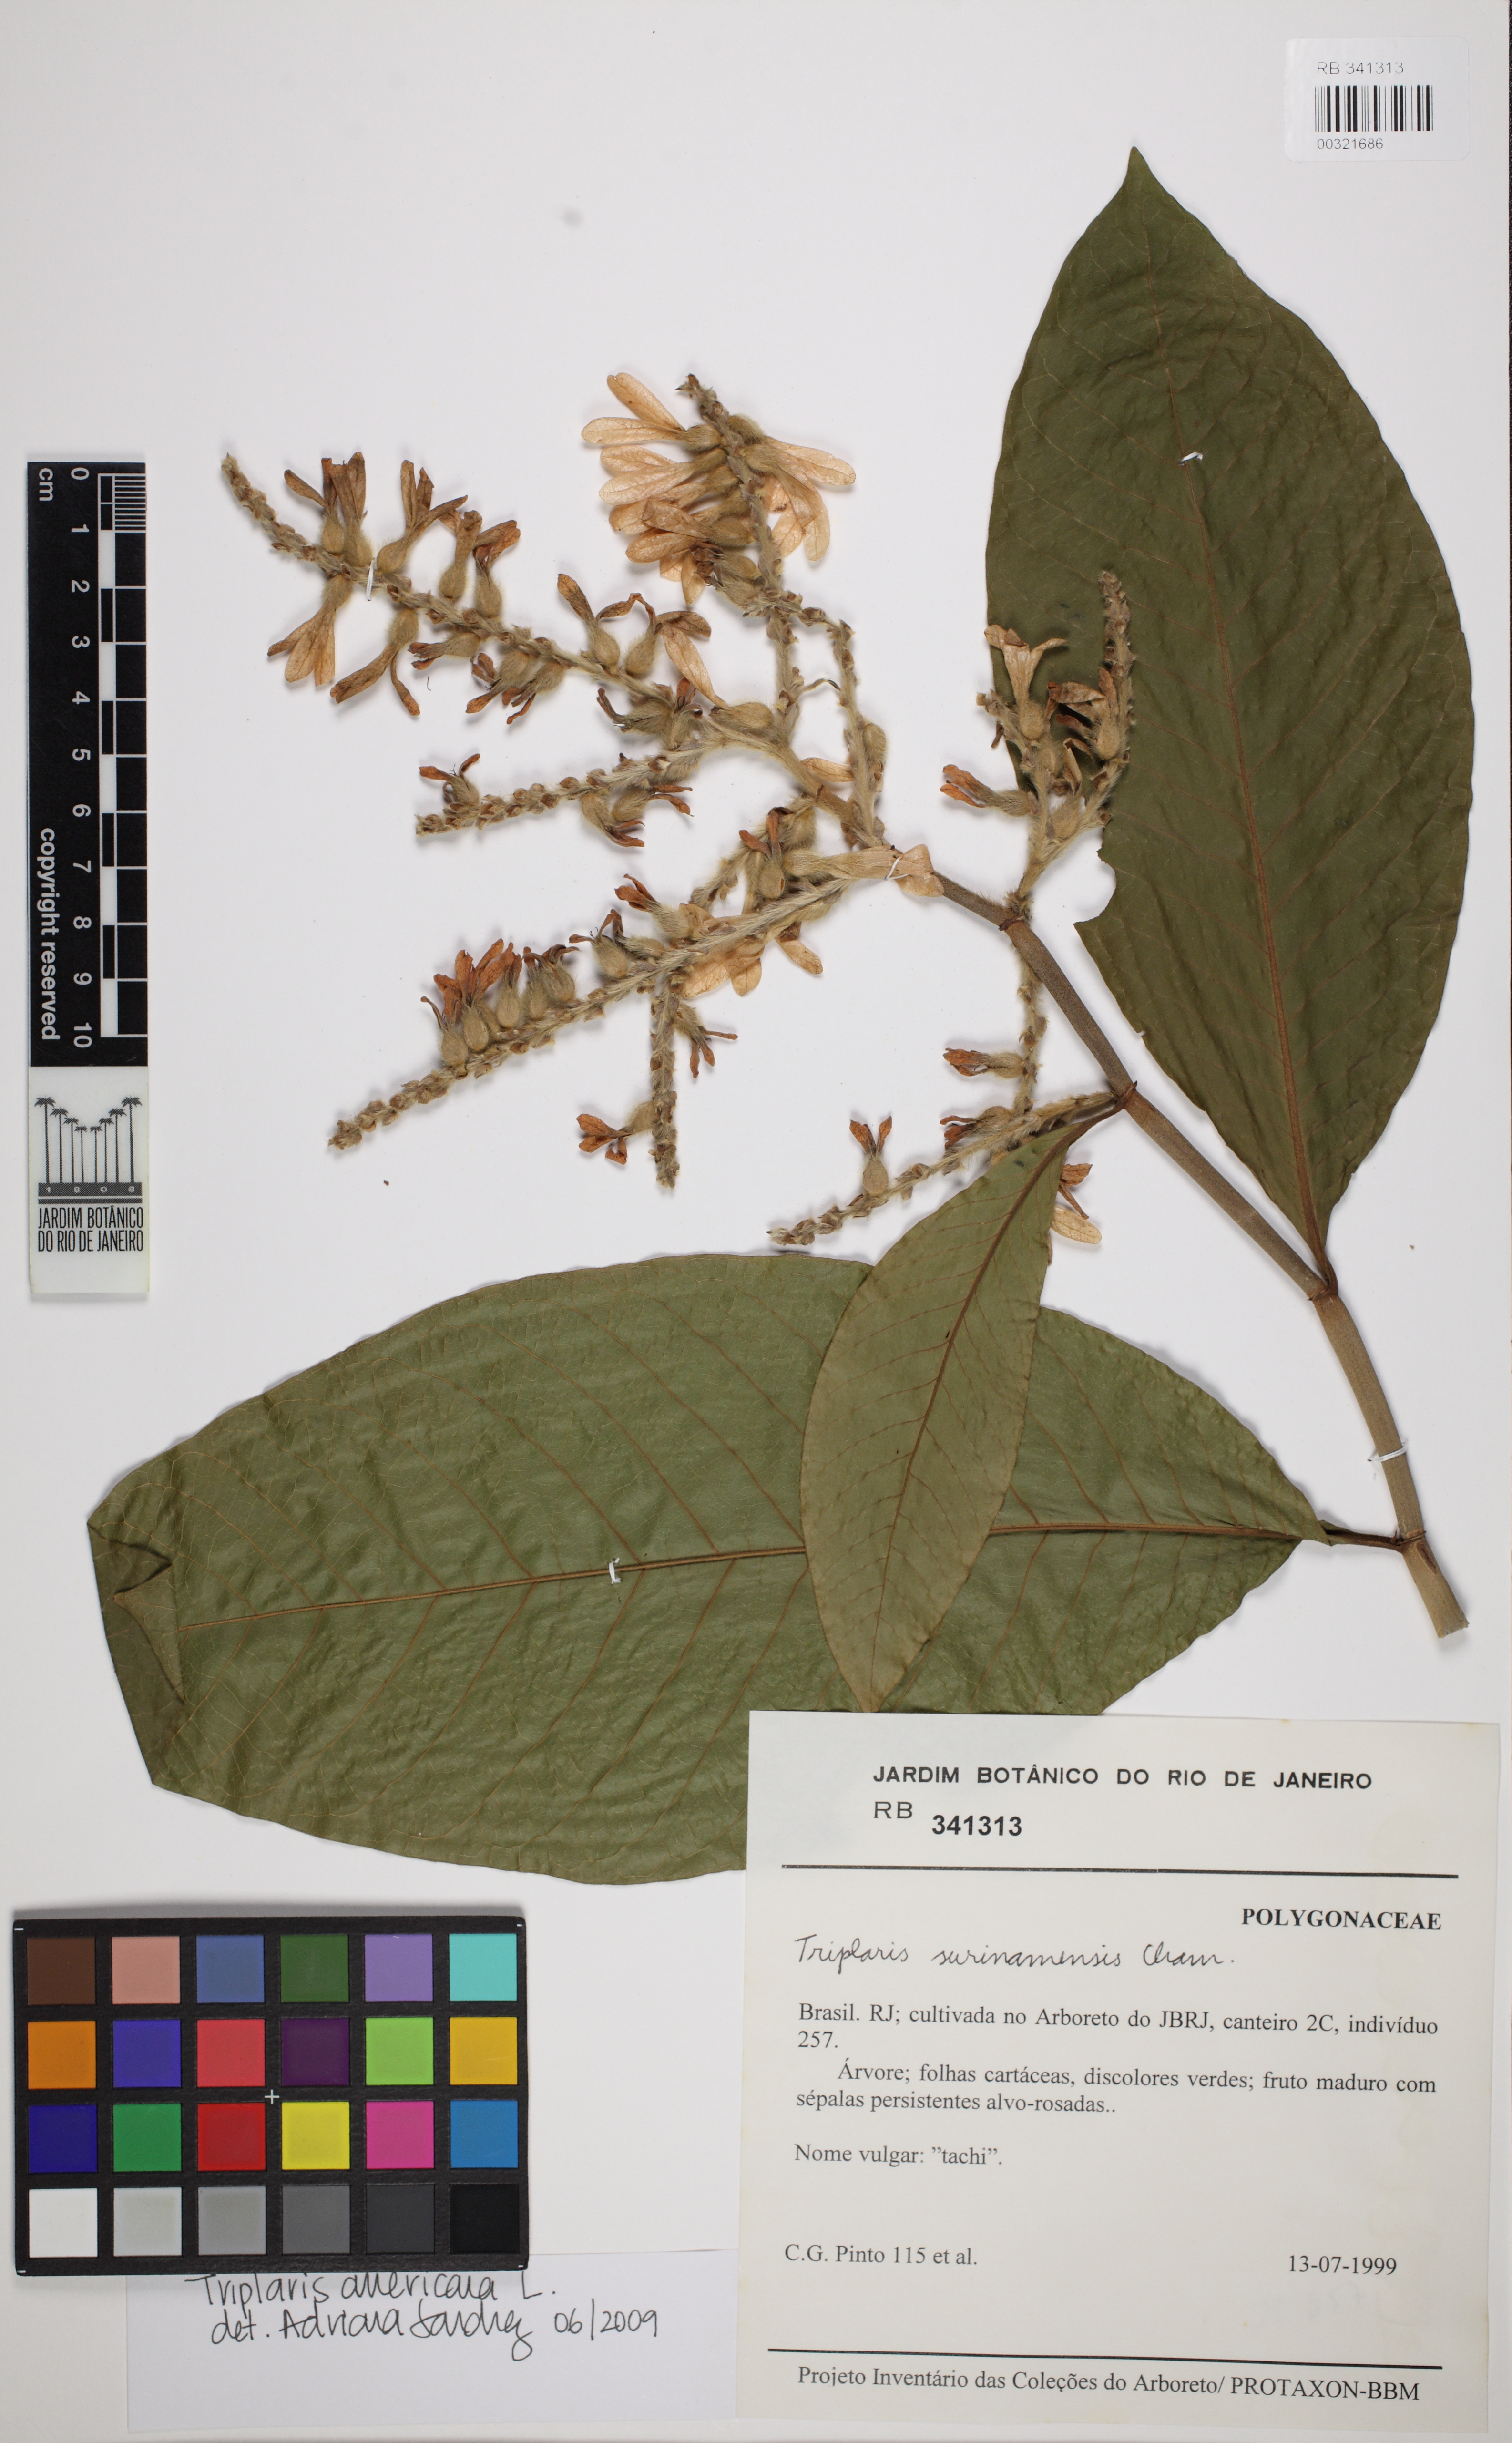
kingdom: Plantae
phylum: Tracheophyta
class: Magnoliopsida
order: Caryophyllales
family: Polygonaceae
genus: Triplaris
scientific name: Triplaris americana
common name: Ant-tree
